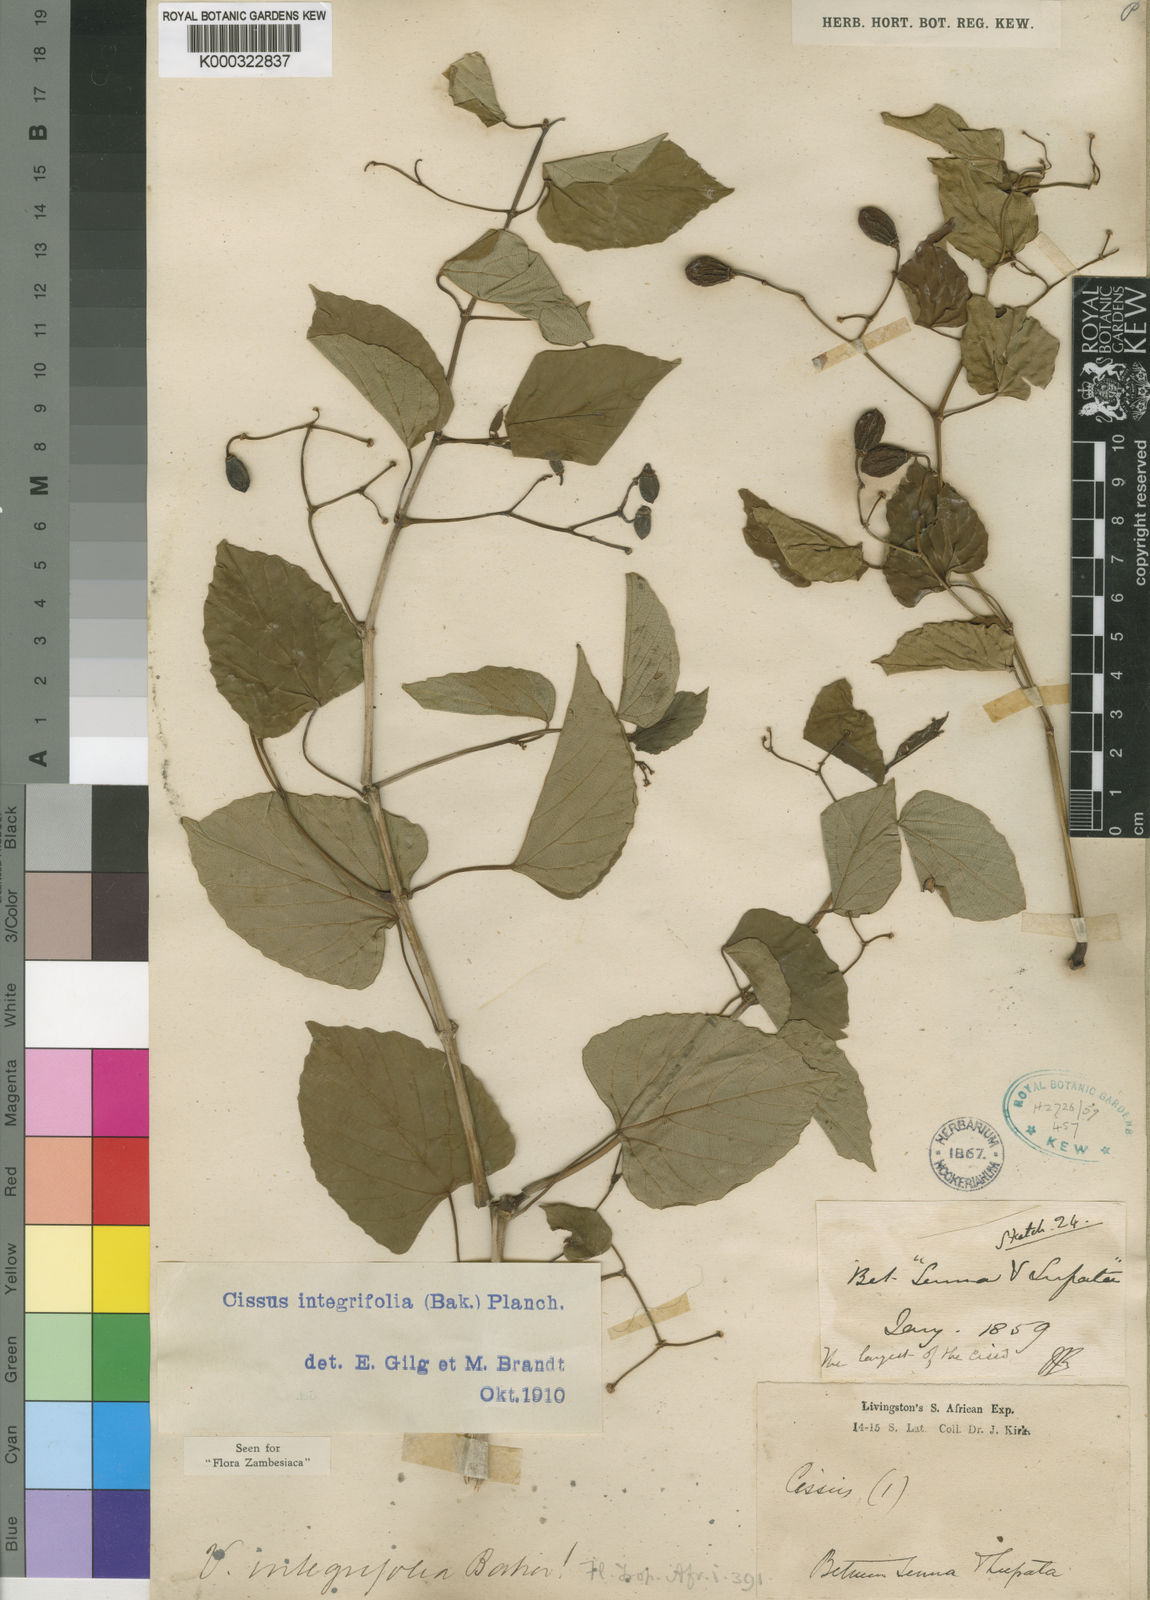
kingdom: Plantae
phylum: Tracheophyta
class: Magnoliopsida
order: Vitales
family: Vitaceae
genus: Cissus
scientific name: Cissus integrifolia
